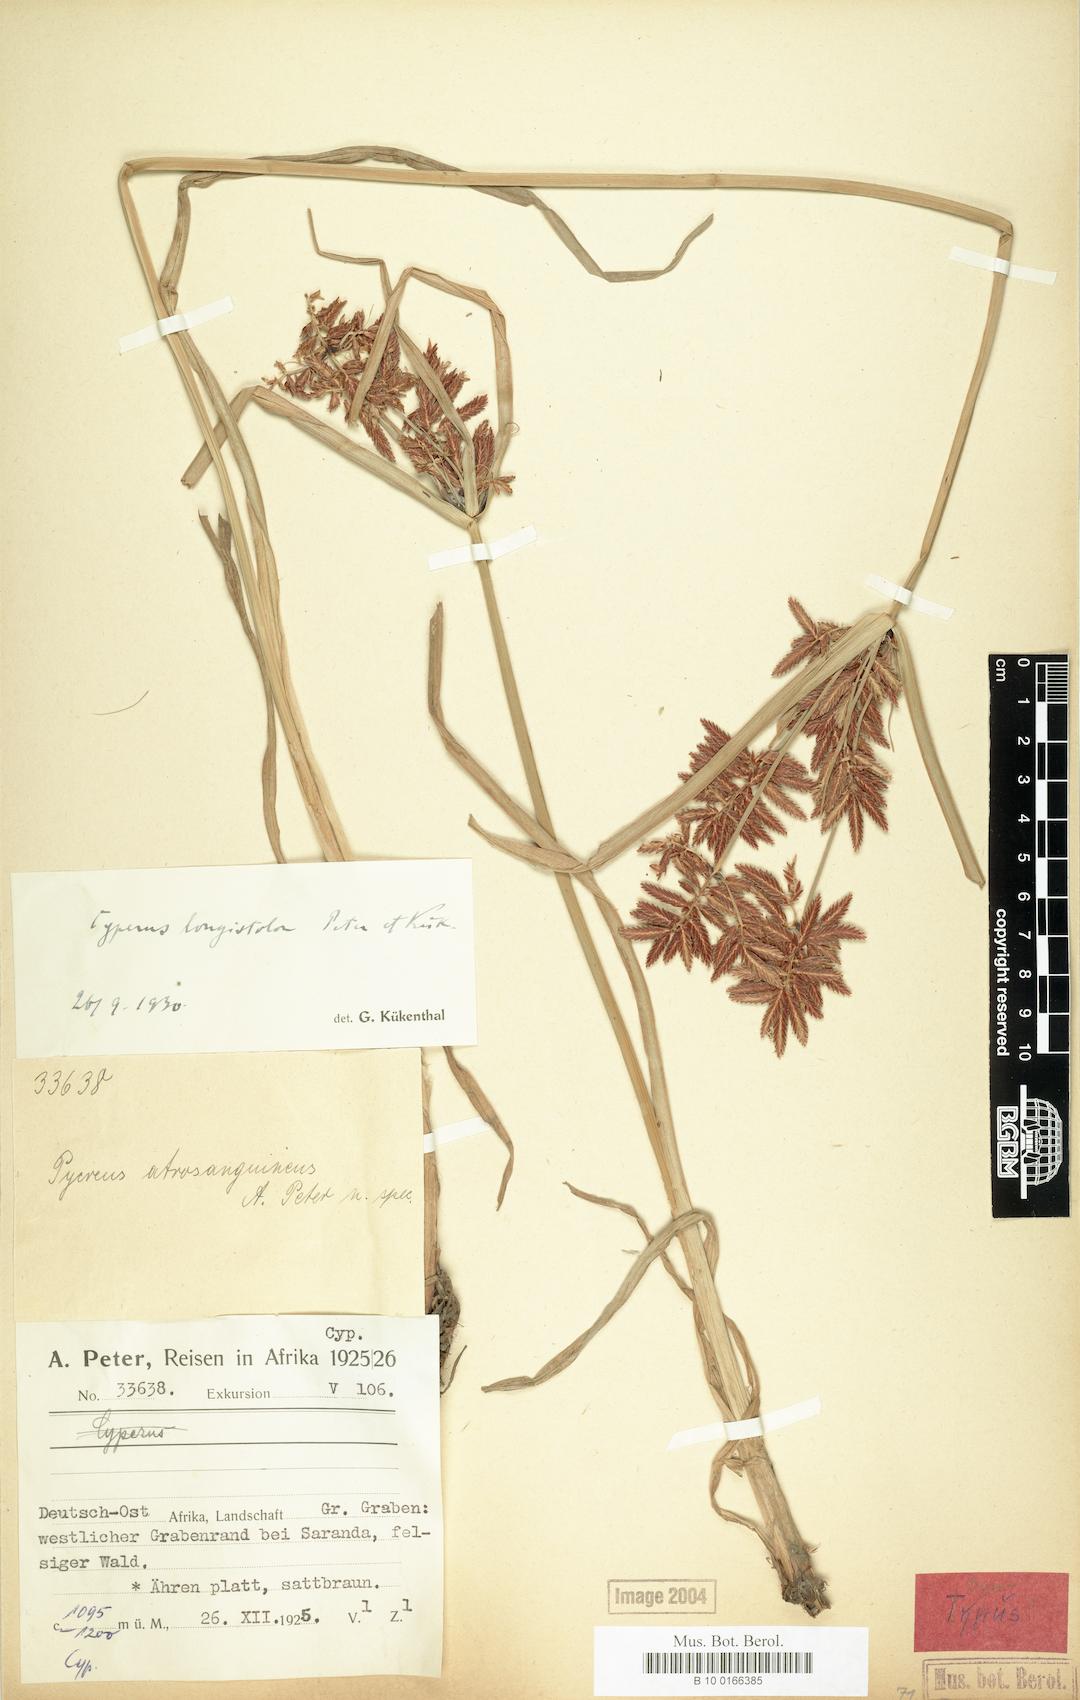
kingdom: Plantae
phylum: Tracheophyta
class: Liliopsida
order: Poales
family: Cyperaceae
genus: Cyperus
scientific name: Cyperus chrysanthus
